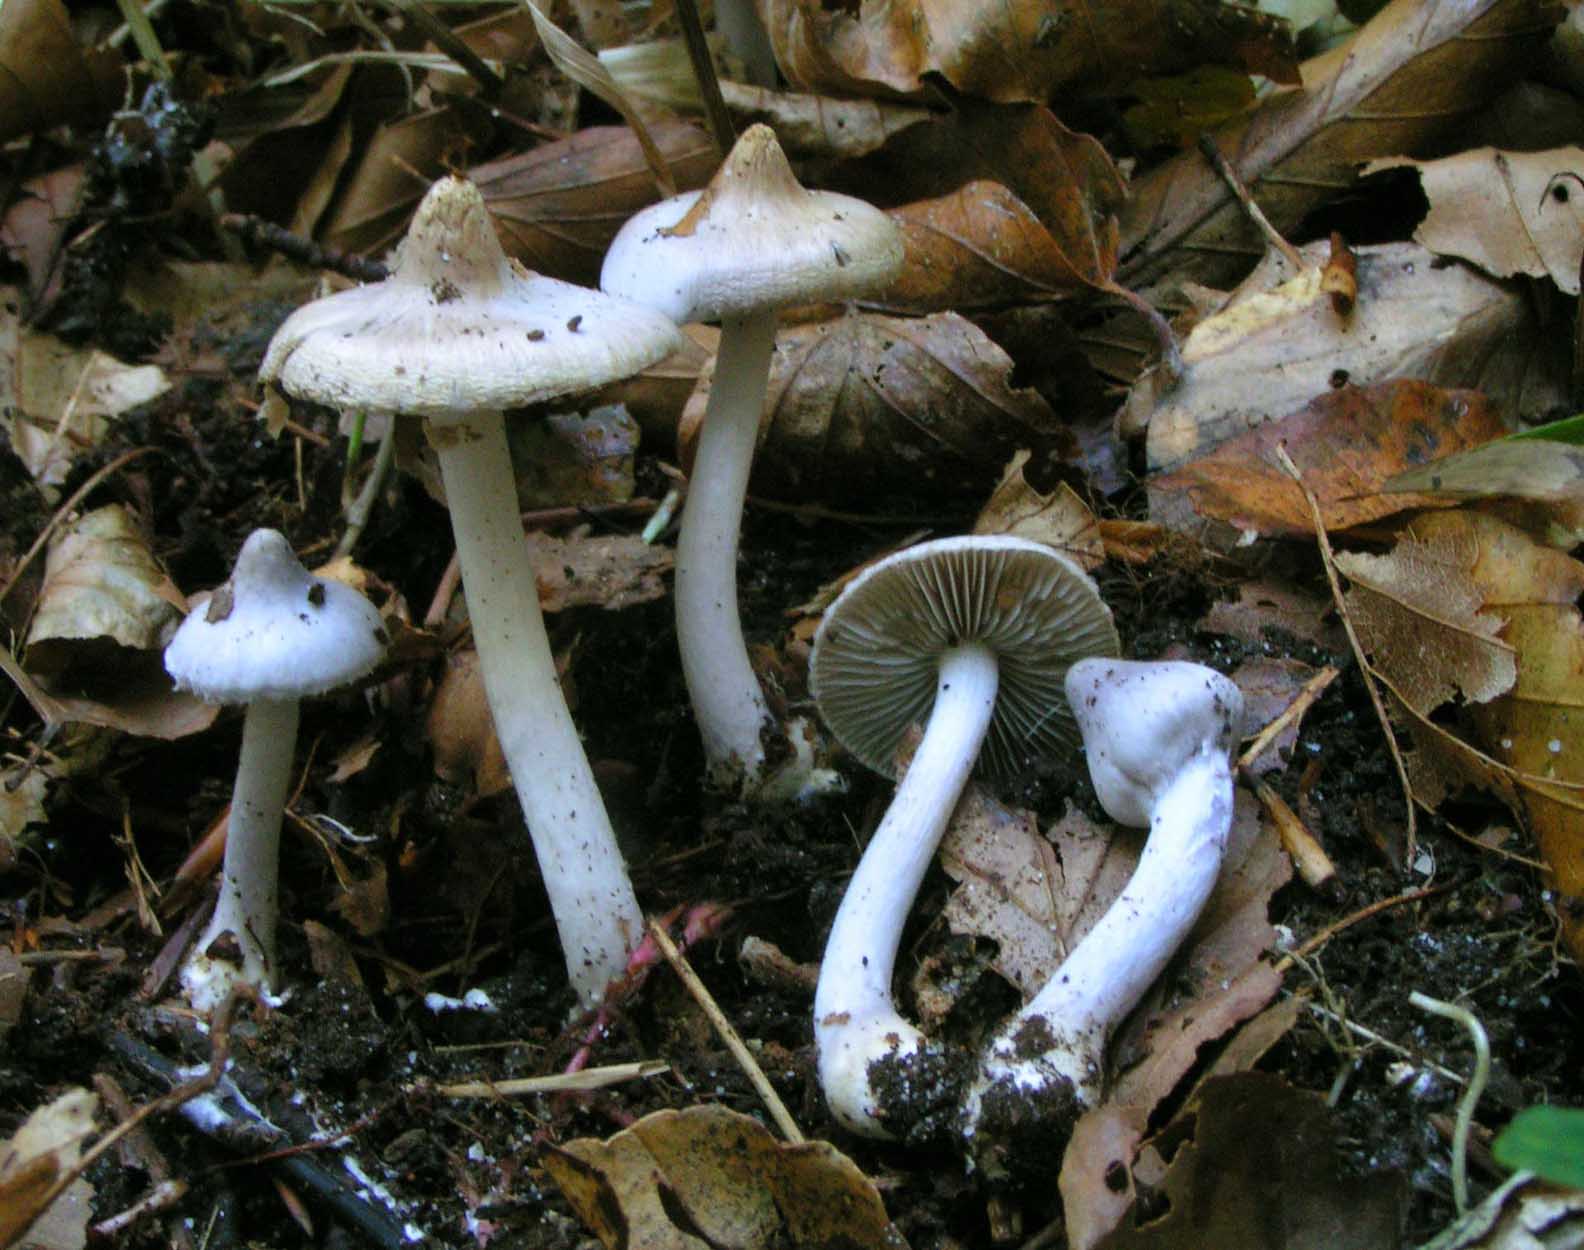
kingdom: Fungi
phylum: Basidiomycota
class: Agaricomycetes
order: Agaricales
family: Inocybaceae
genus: Inocybe
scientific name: Inocybe geophylla
